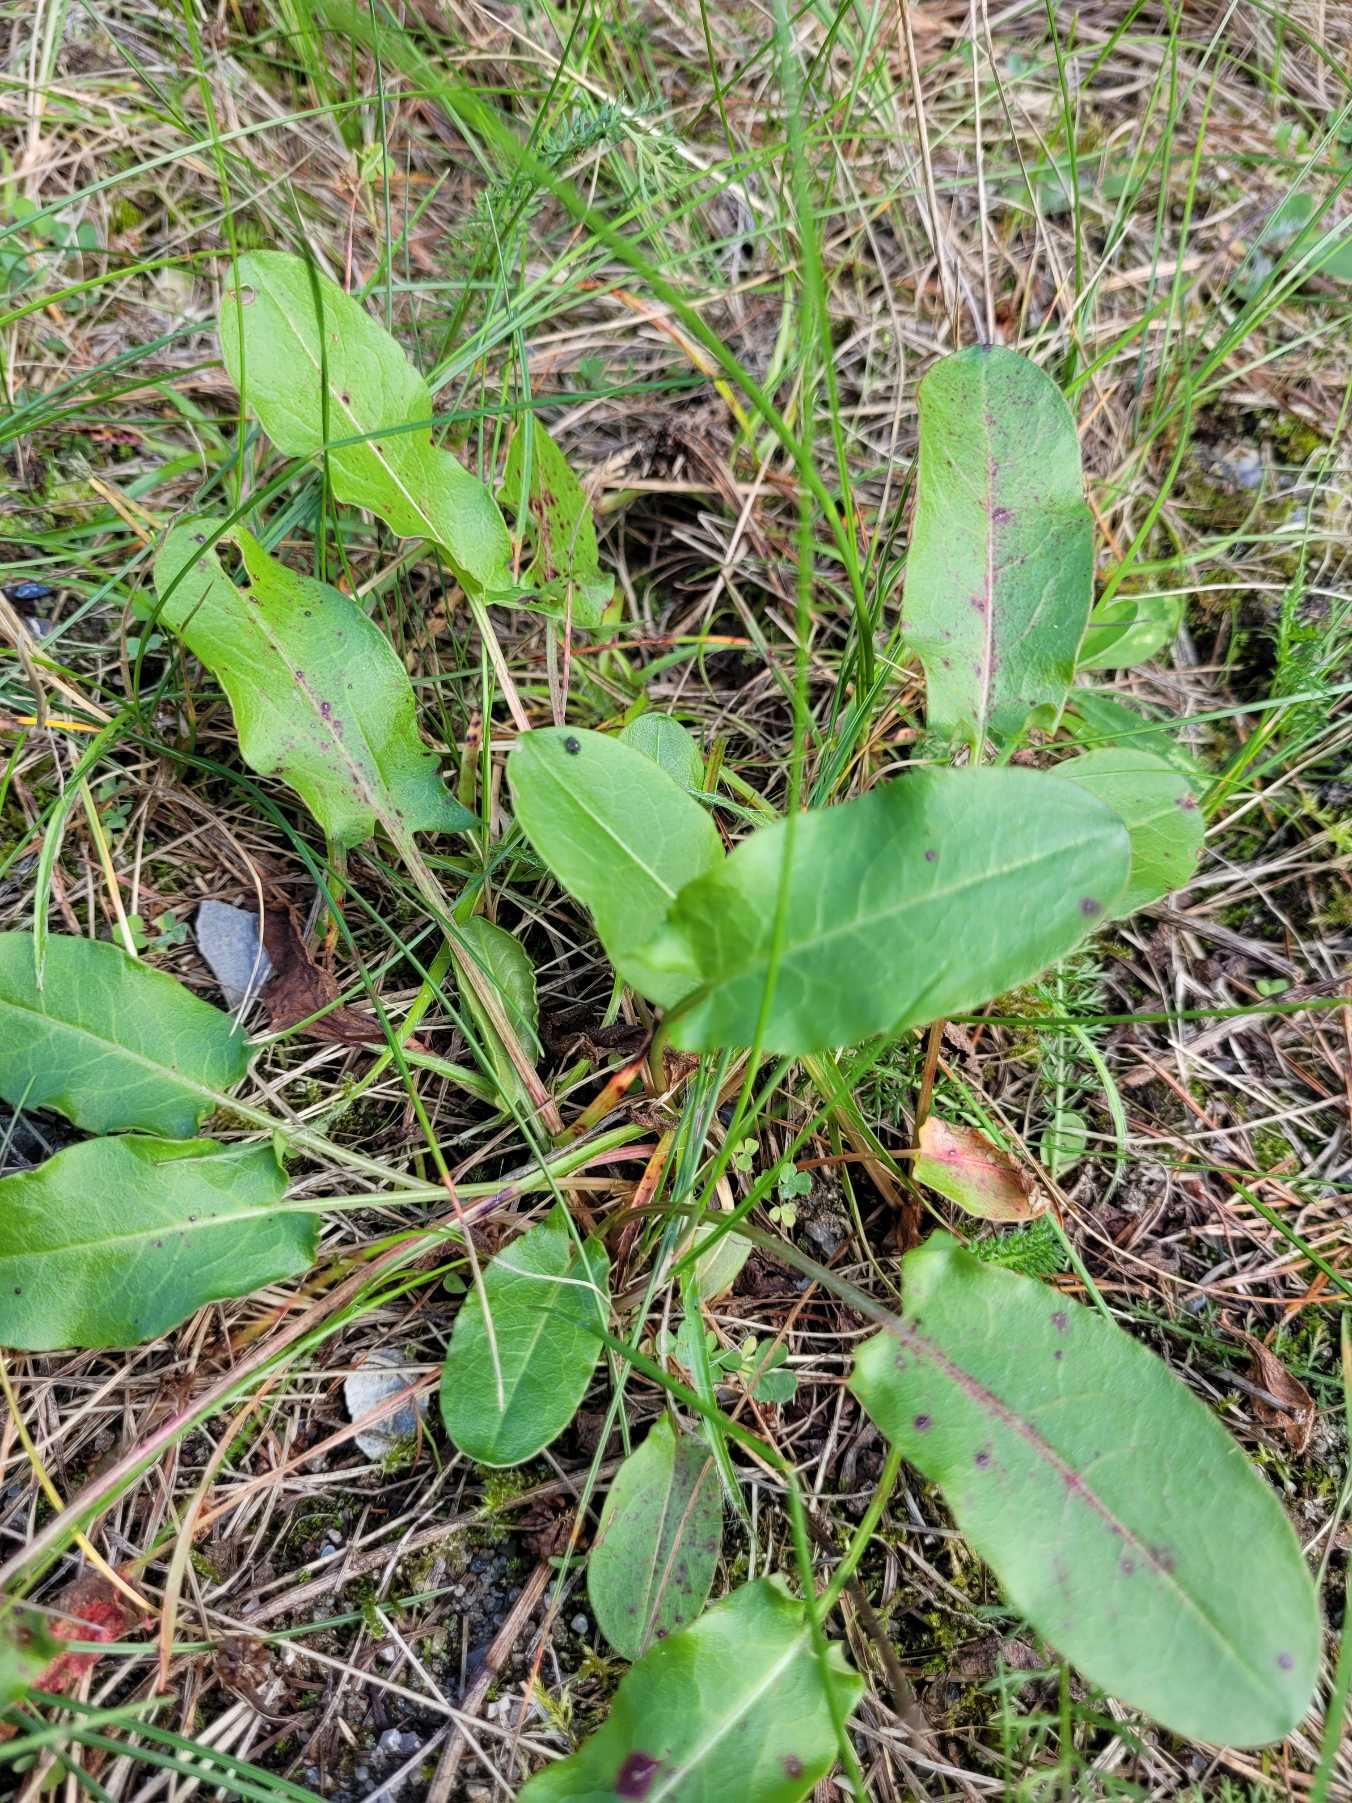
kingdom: Plantae
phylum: Tracheophyta
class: Magnoliopsida
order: Caryophyllales
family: Polygonaceae
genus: Rumex
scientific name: Rumex thyrsiflorus
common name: Dusk-syre
